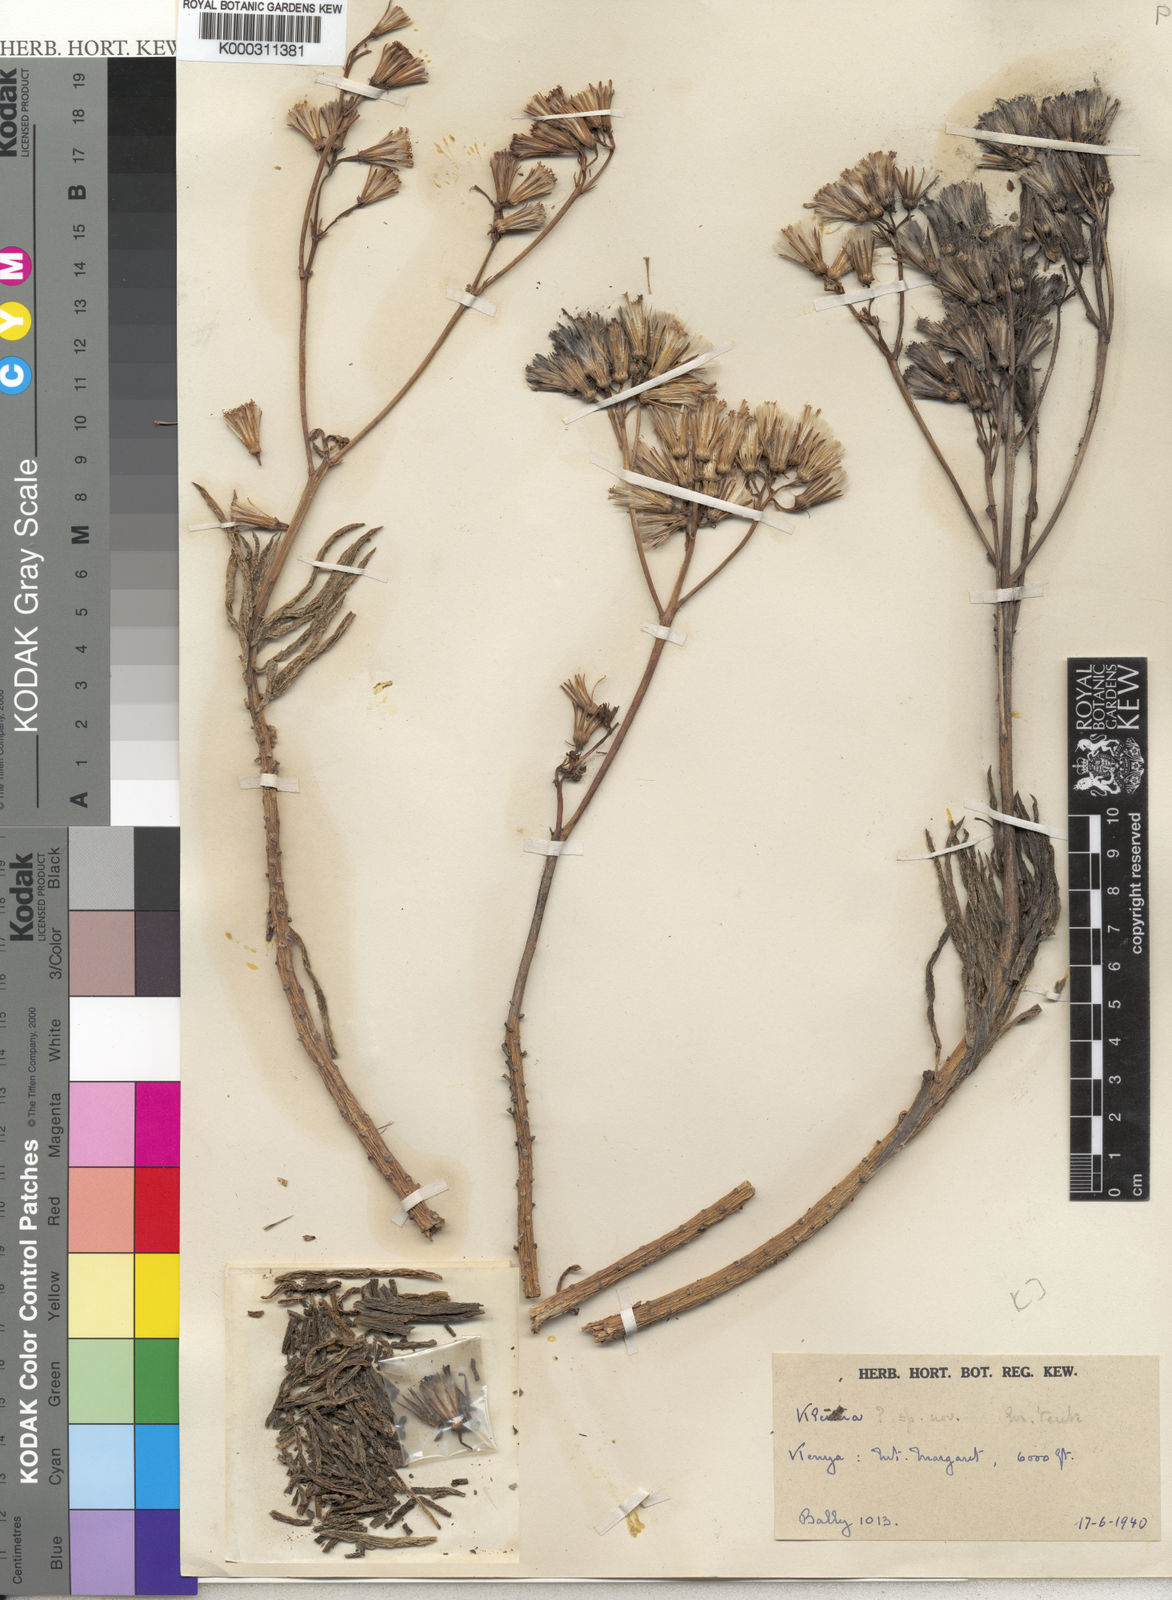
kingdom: Plantae
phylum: Tracheophyta
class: Magnoliopsida
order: Asterales
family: Asteraceae
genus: Senecio
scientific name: Senecio
